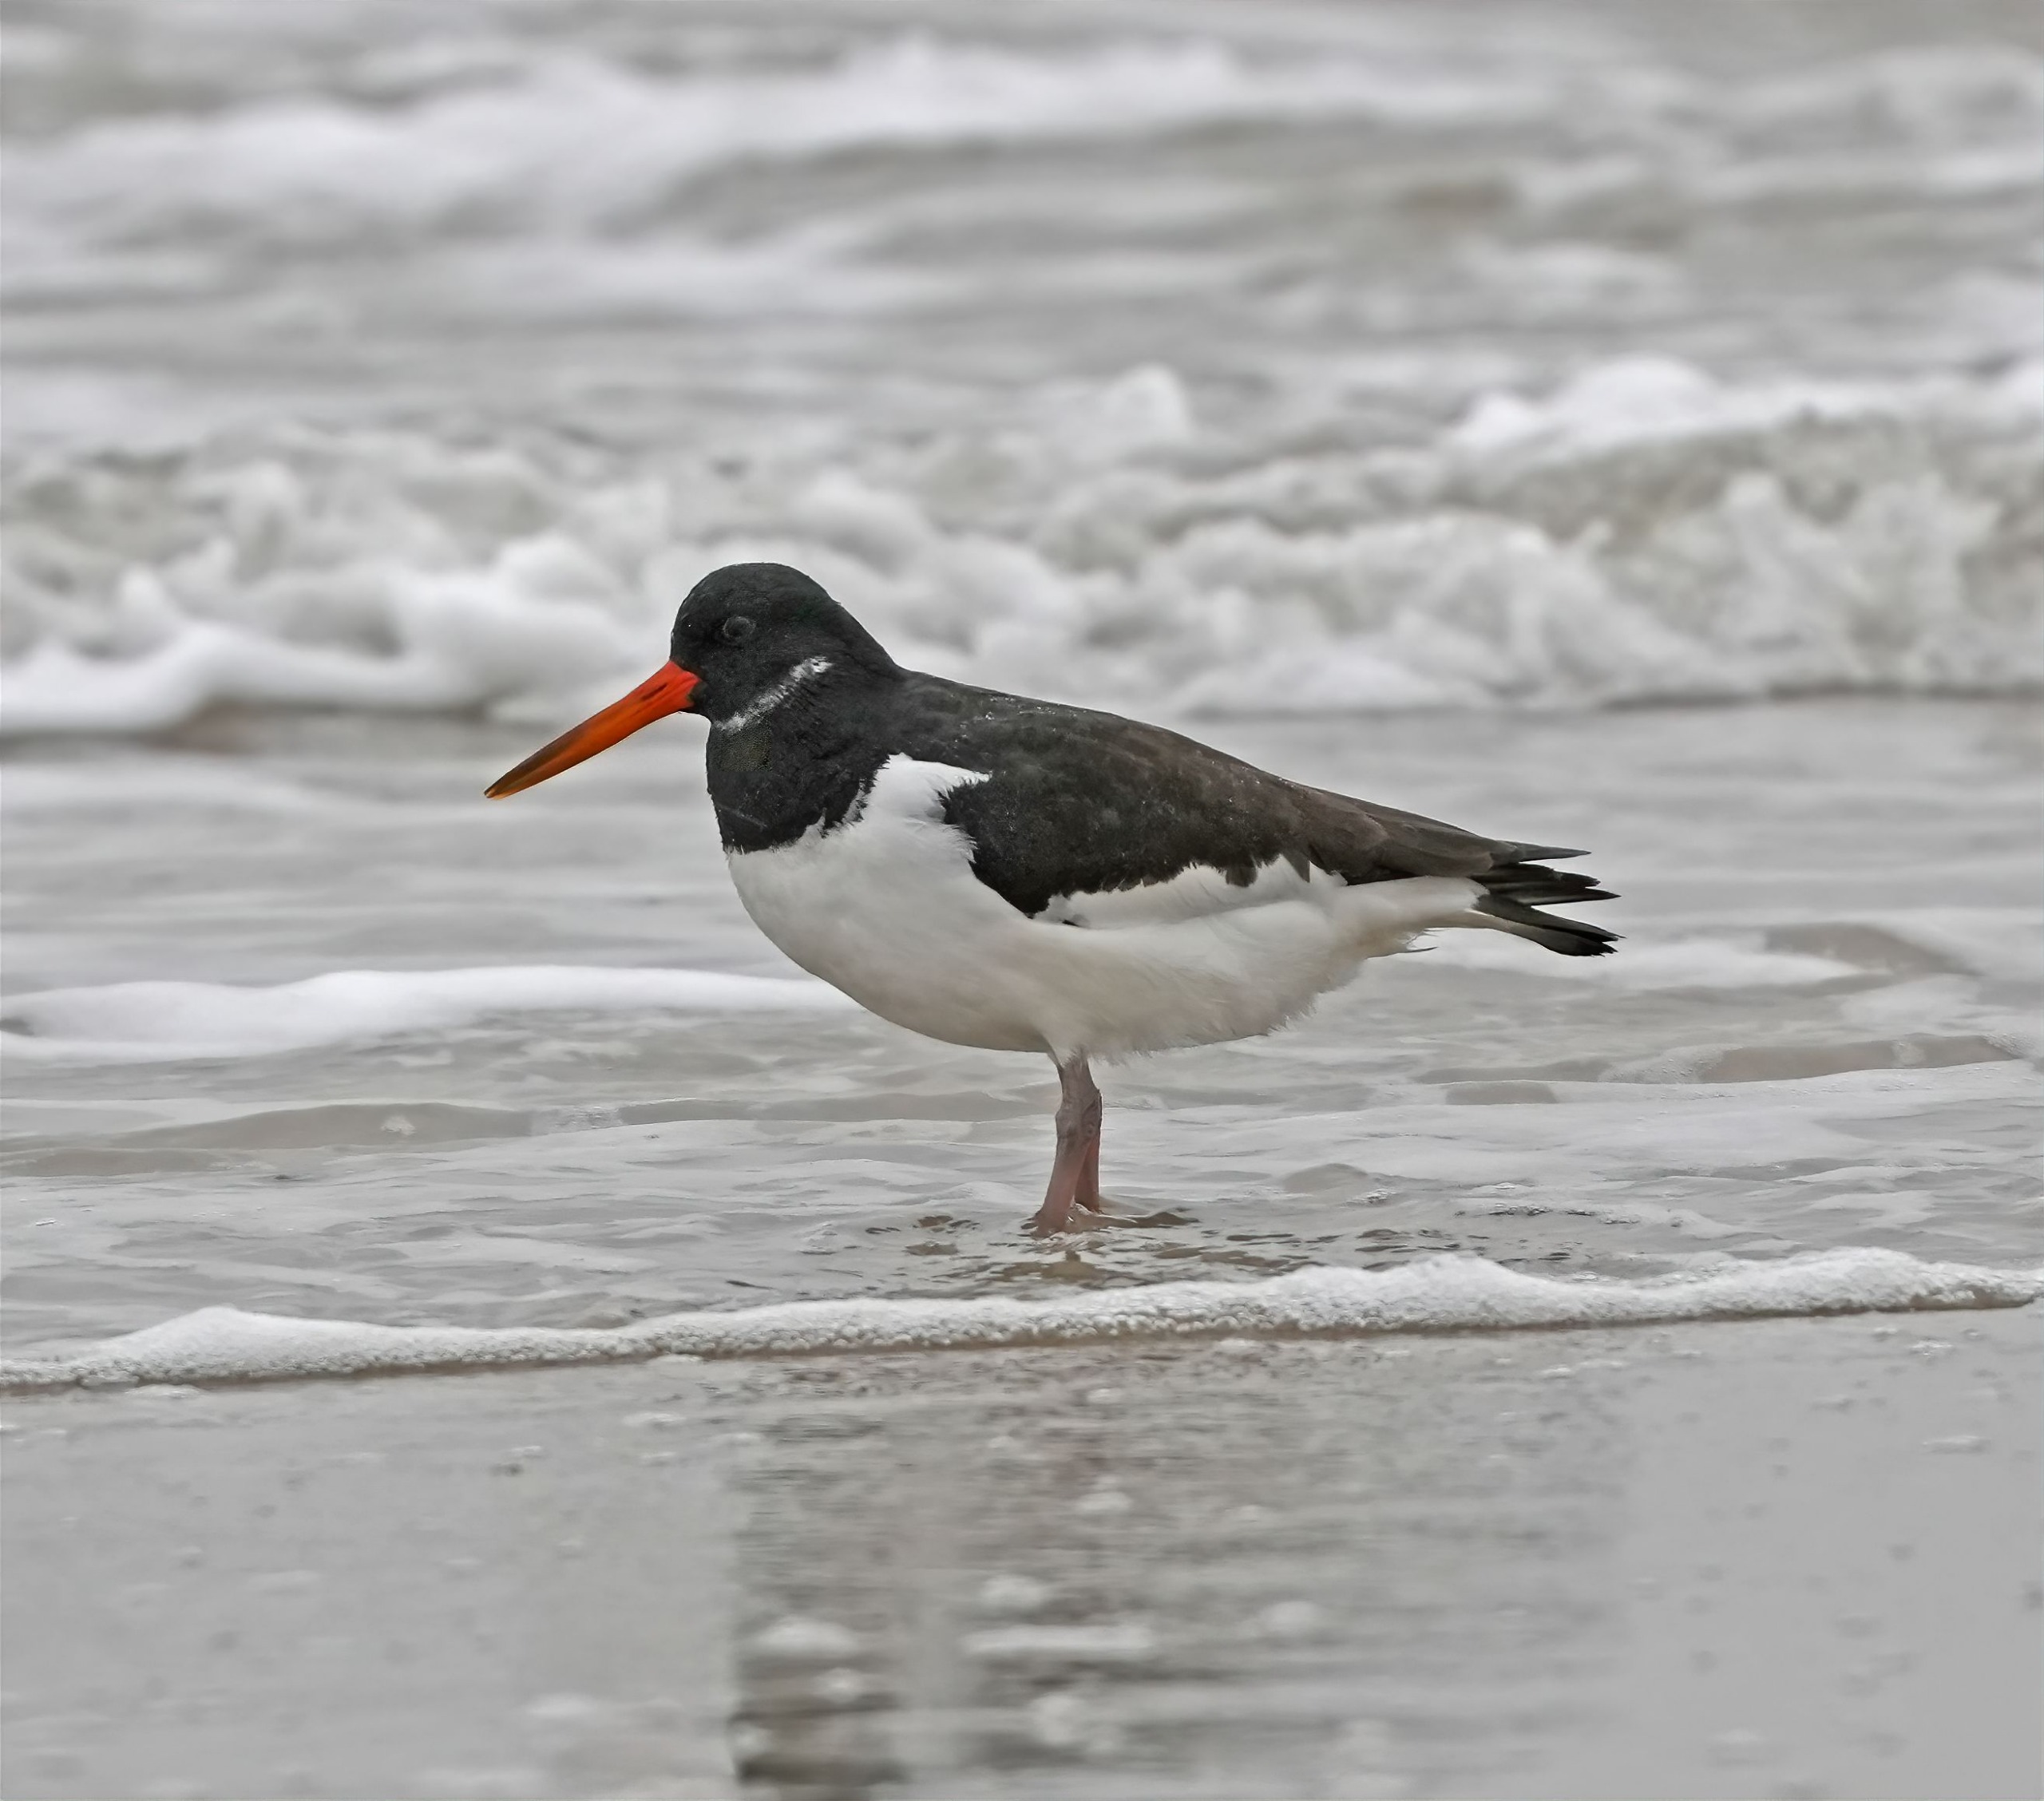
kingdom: Animalia
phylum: Chordata
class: Aves
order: Charadriiformes
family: Haematopodidae
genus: Haematopus
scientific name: Haematopus ostralegus
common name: Strandskade
